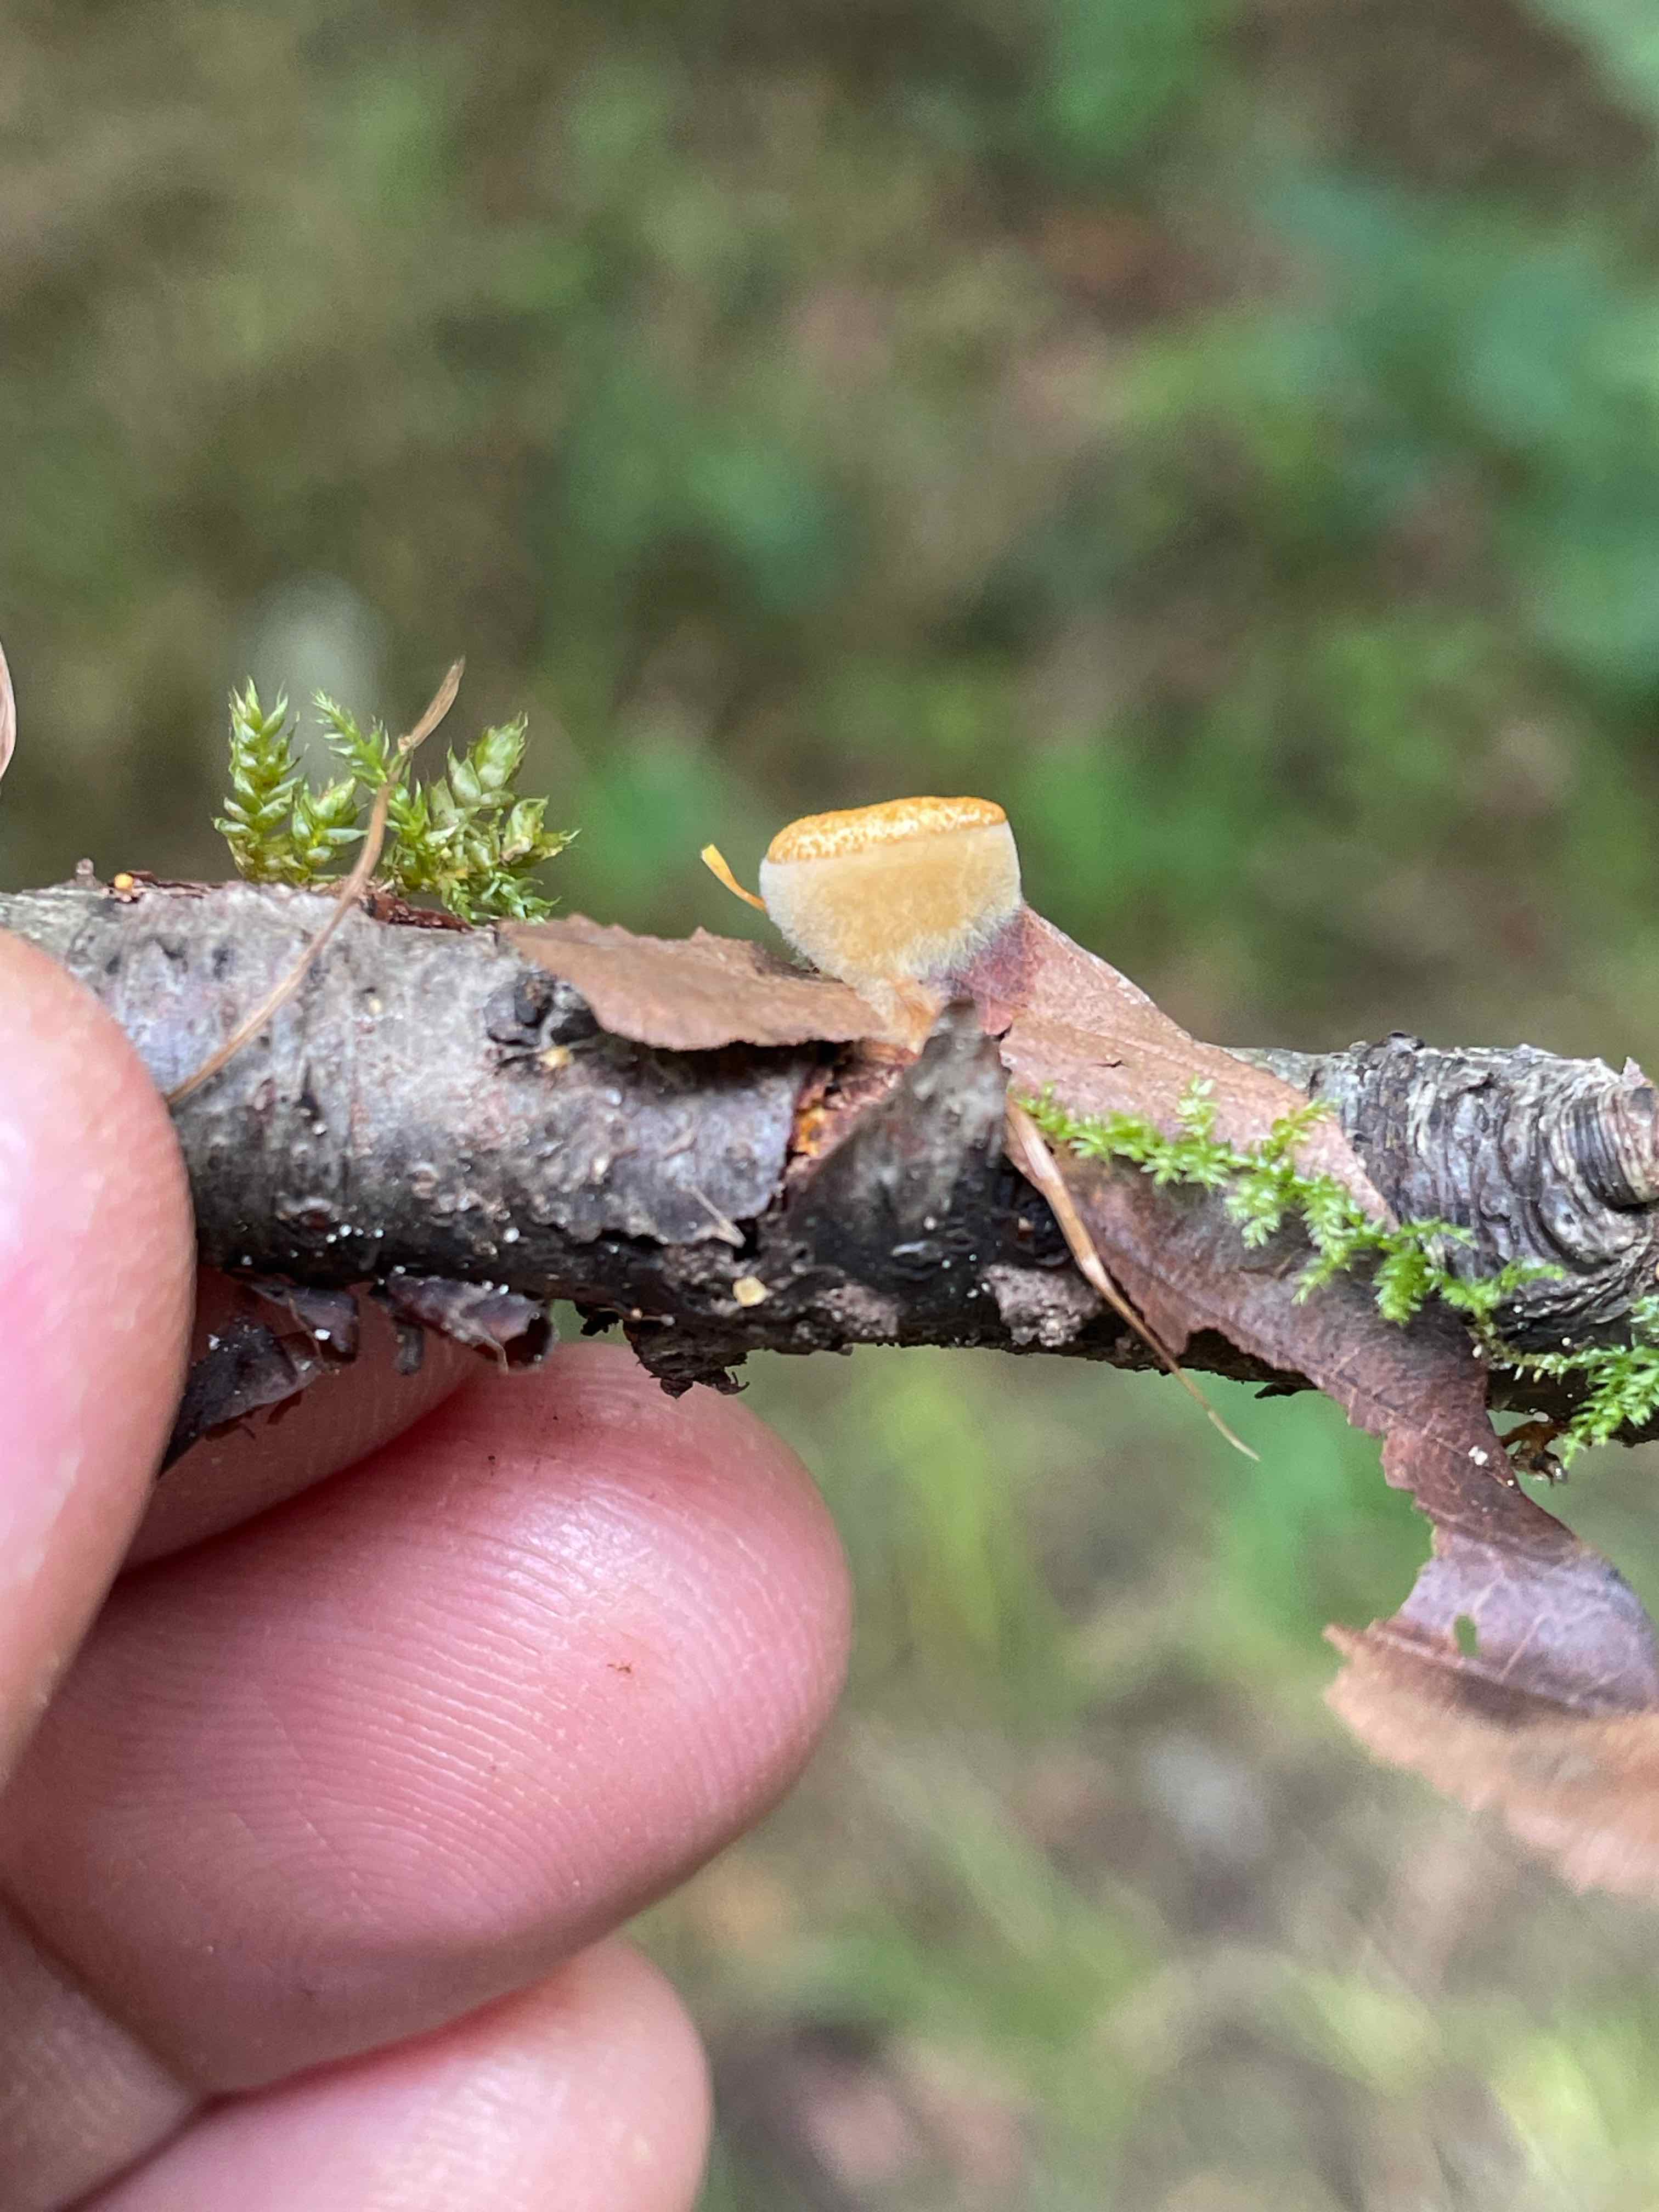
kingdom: Fungi
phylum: Basidiomycota
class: Agaricomycetes
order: Agaricales
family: Nidulariaceae
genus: Crucibulum
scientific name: Crucibulum crucibuliforme
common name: krukkesvamp
